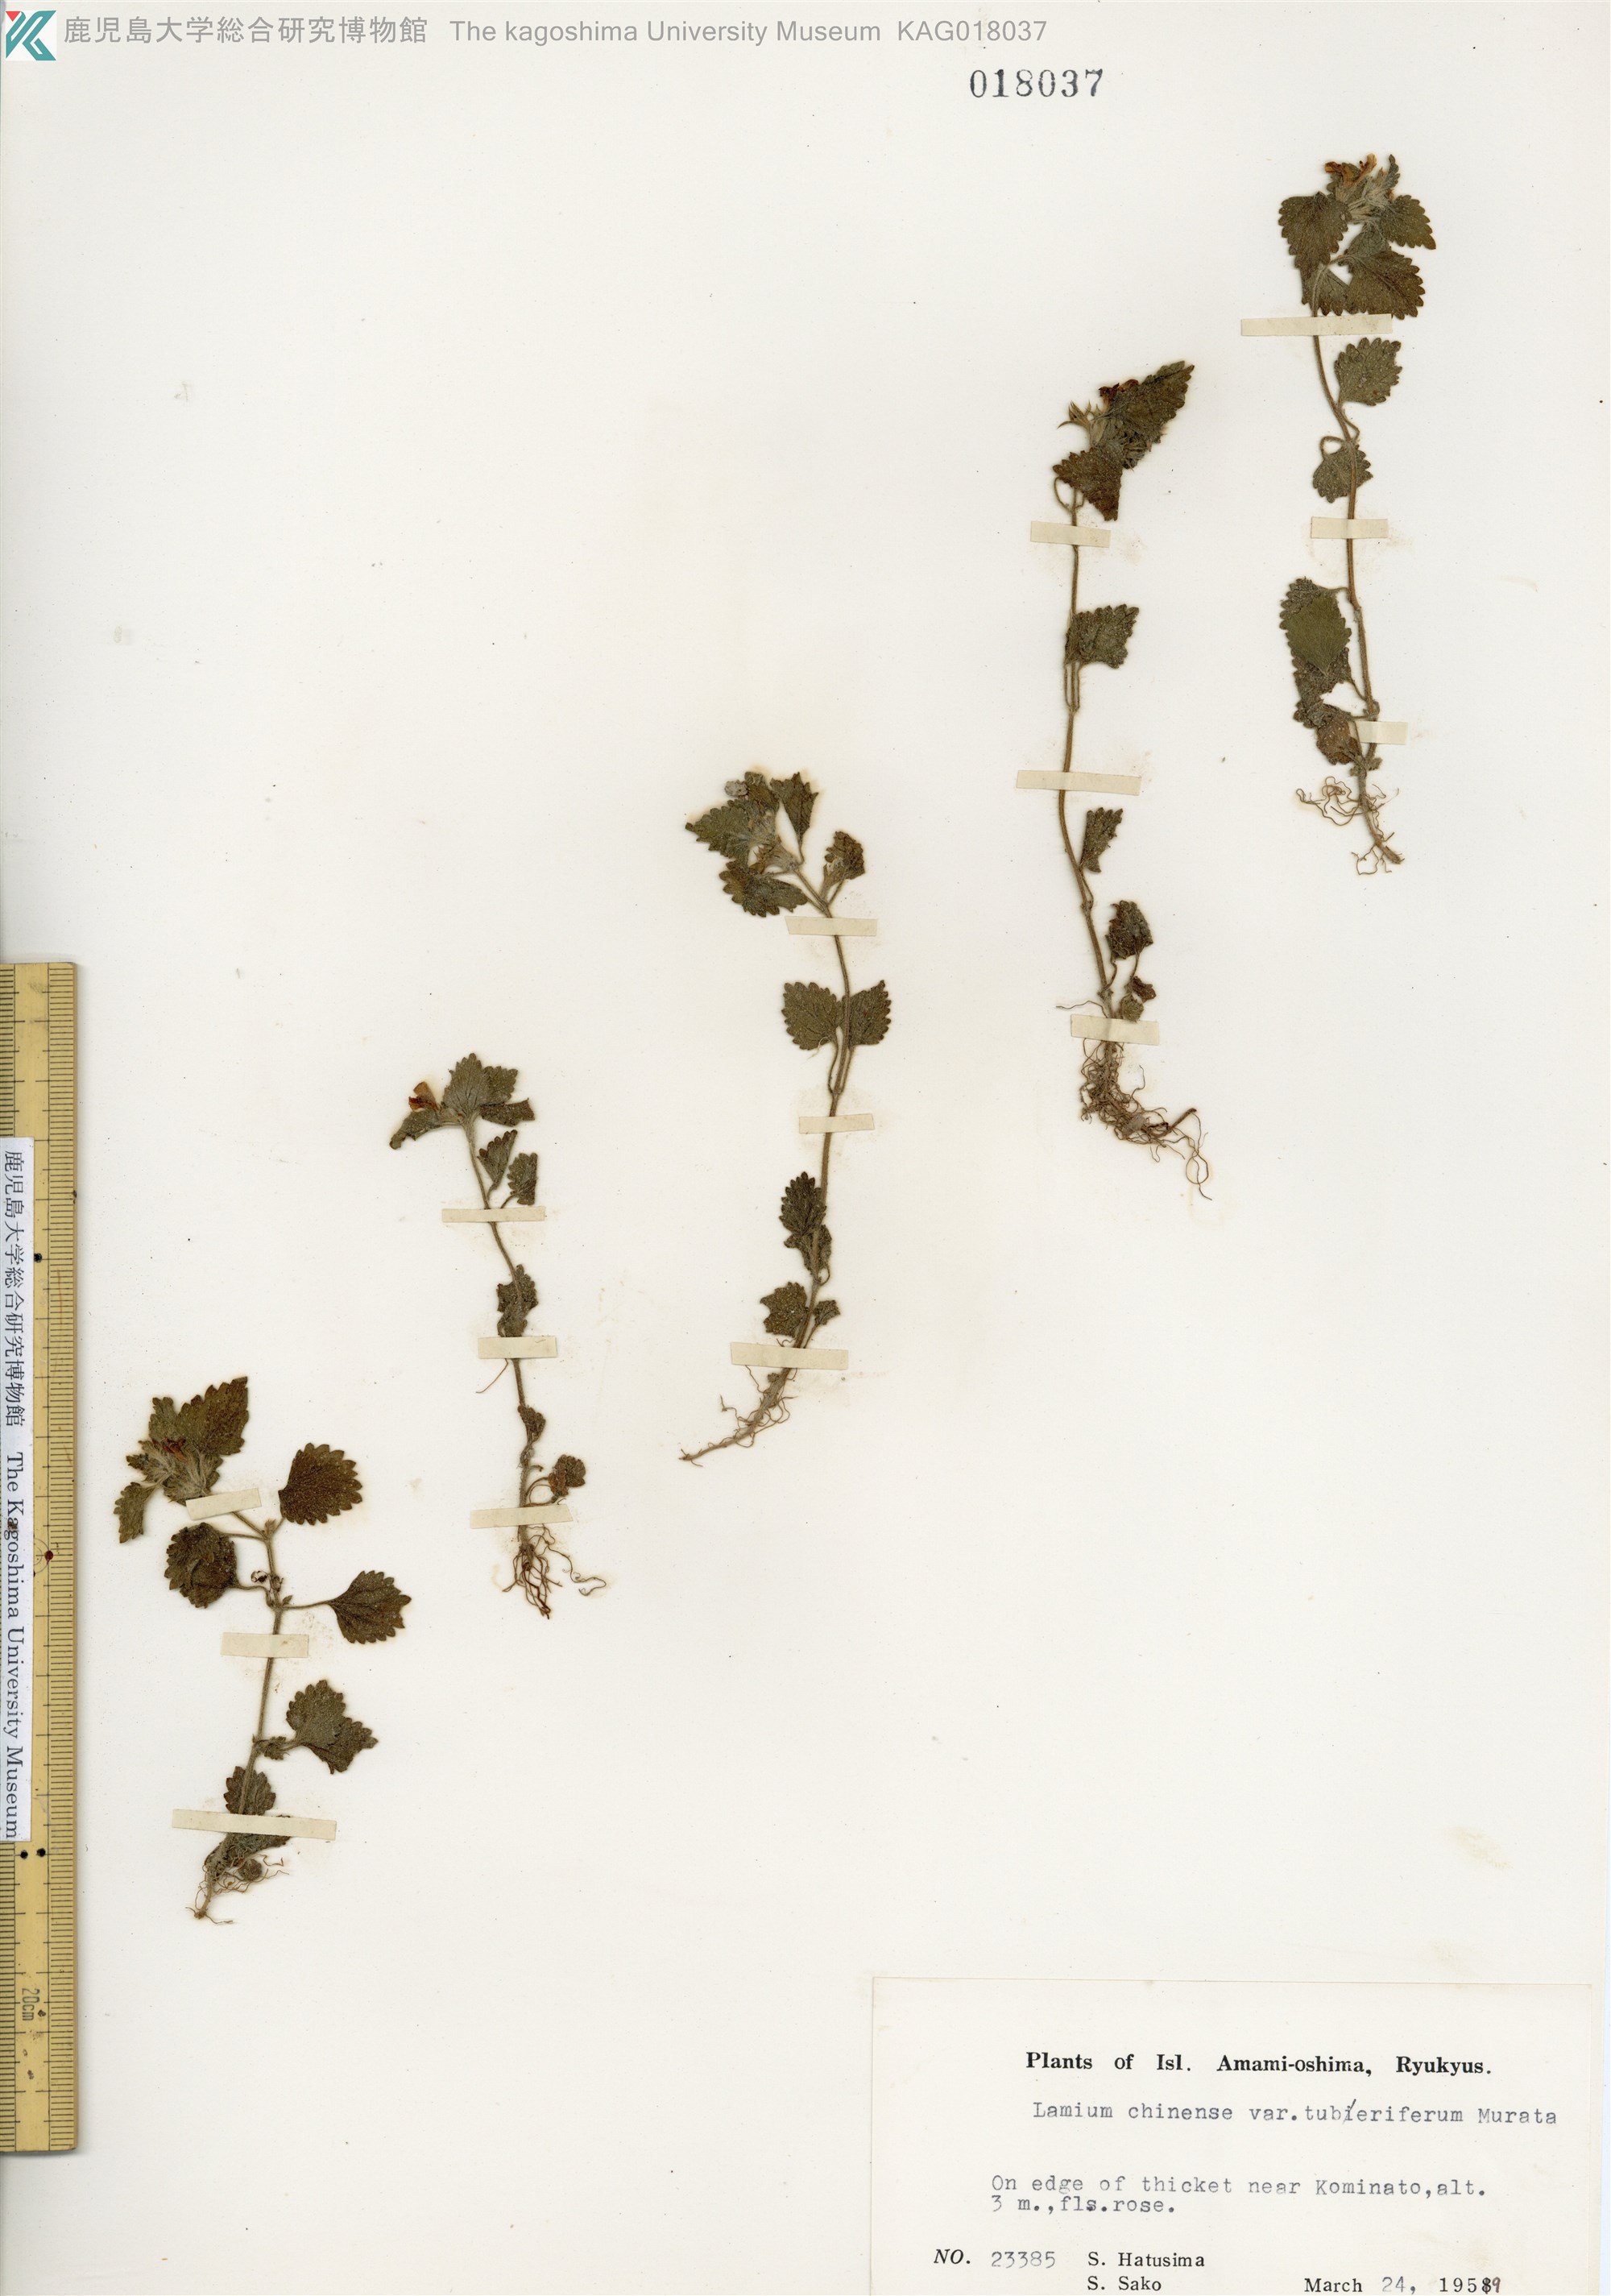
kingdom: Plantae
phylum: Tracheophyta
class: Magnoliopsida
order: Lamiales
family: Lamiaceae
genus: Matsumurella
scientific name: Matsumurella tuberifera
